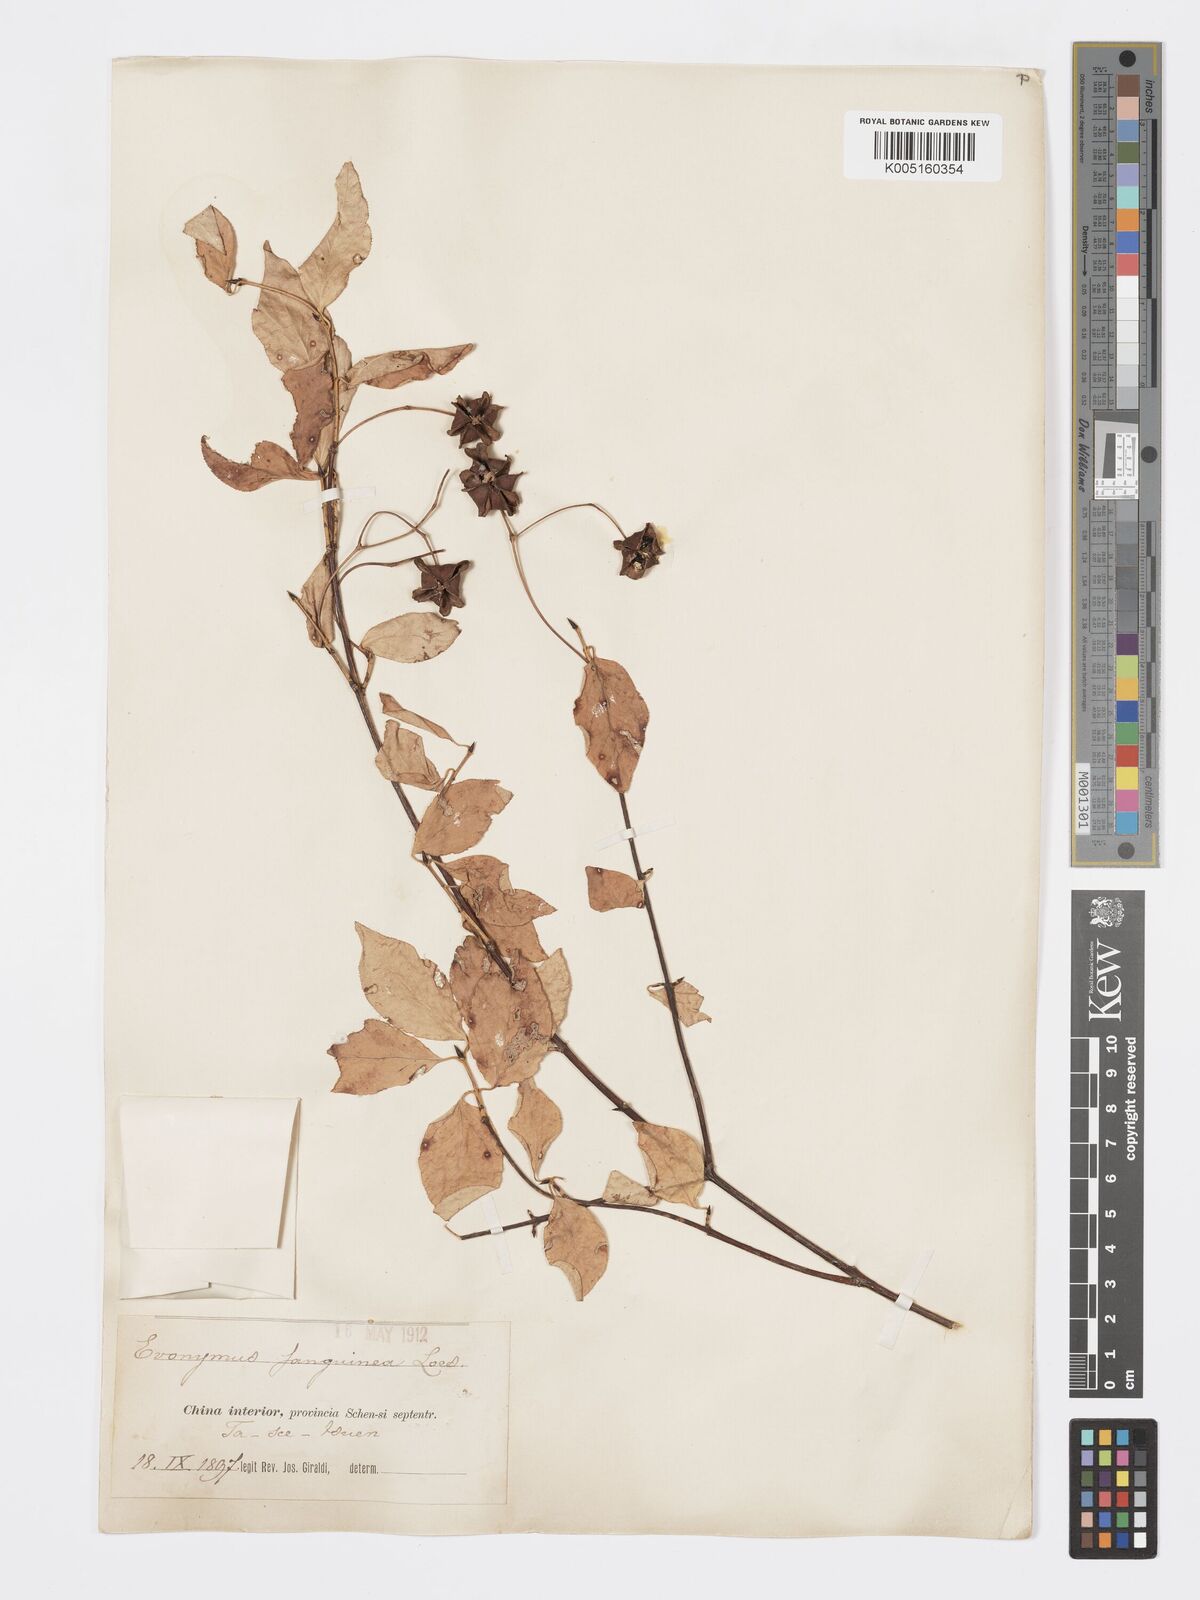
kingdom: Plantae
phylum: Tracheophyta
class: Magnoliopsida
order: Celastrales
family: Celastraceae
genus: Euonymus
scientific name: Euonymus macropterus
